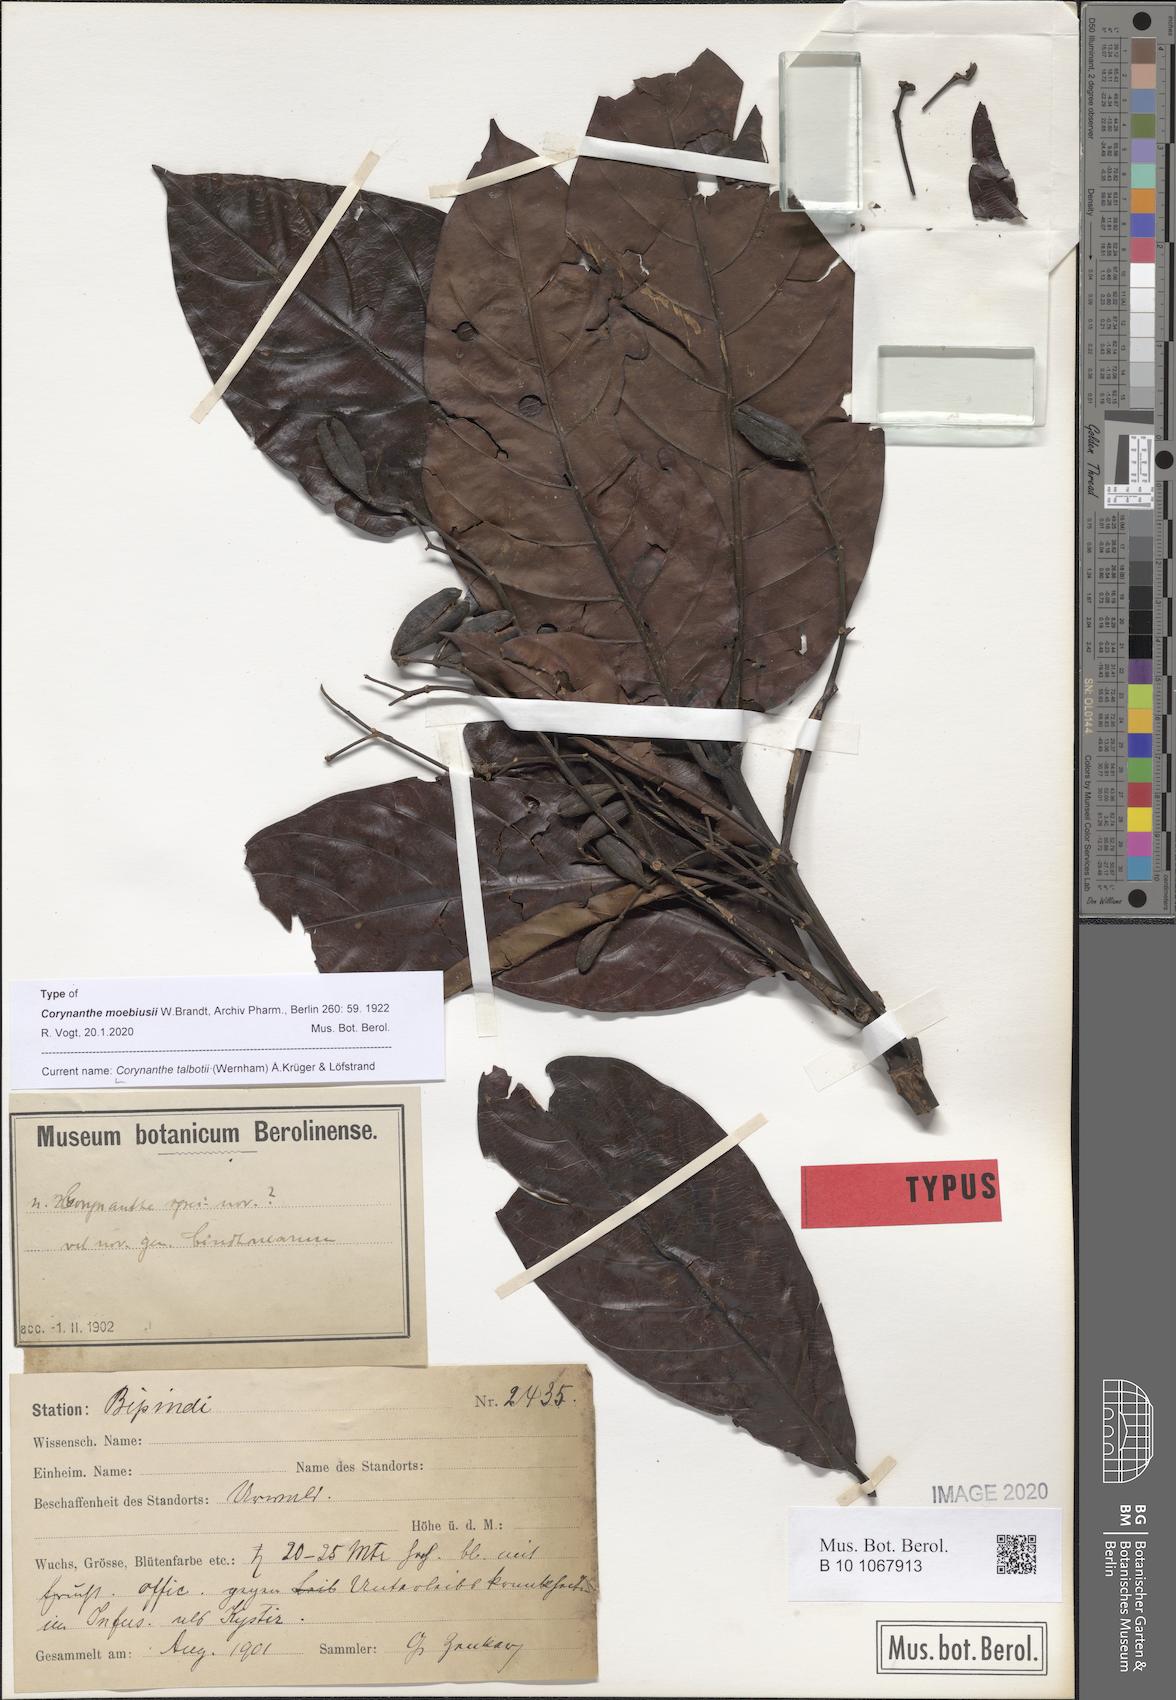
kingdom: Plantae
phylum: Tracheophyta
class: Magnoliopsida
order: Gentianales
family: Rubiaceae
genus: Corynanthe
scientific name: Corynanthe talbotii
